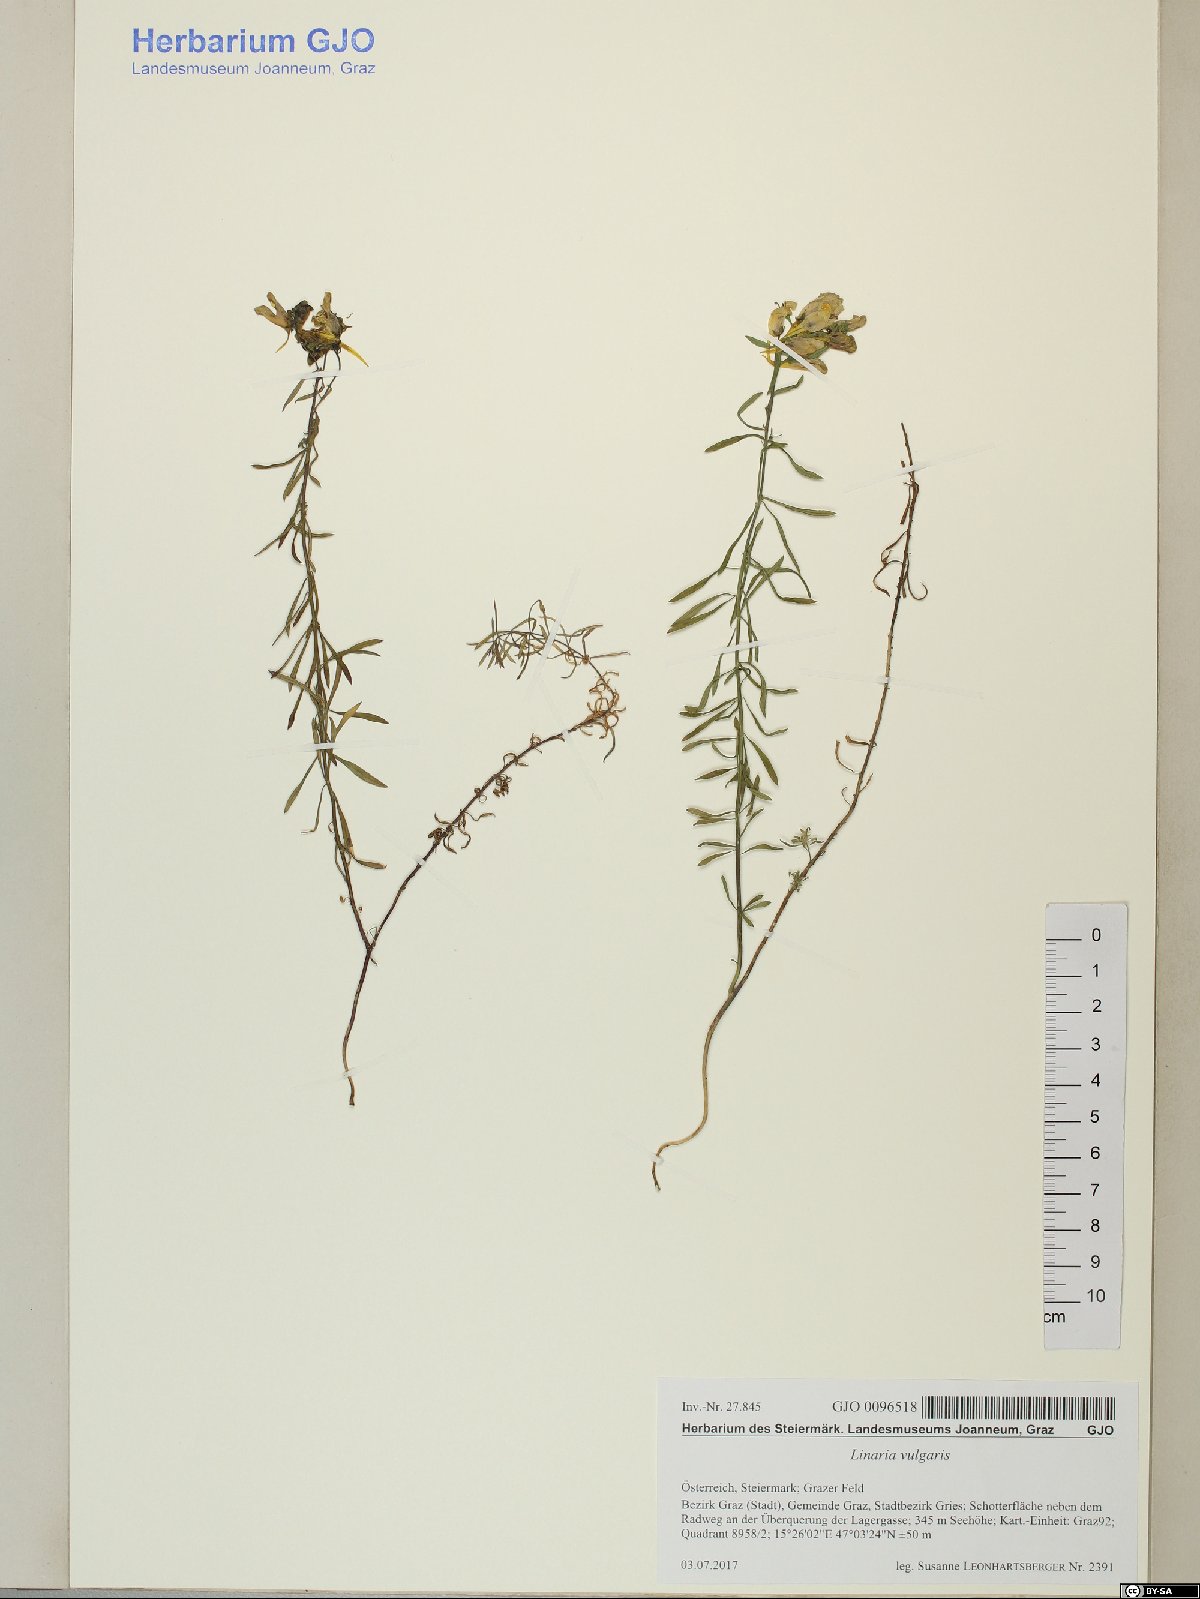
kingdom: Plantae
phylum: Tracheophyta
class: Magnoliopsida
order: Lamiales
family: Plantaginaceae
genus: Linaria
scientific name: Linaria vulgaris
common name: Butter and eggs
